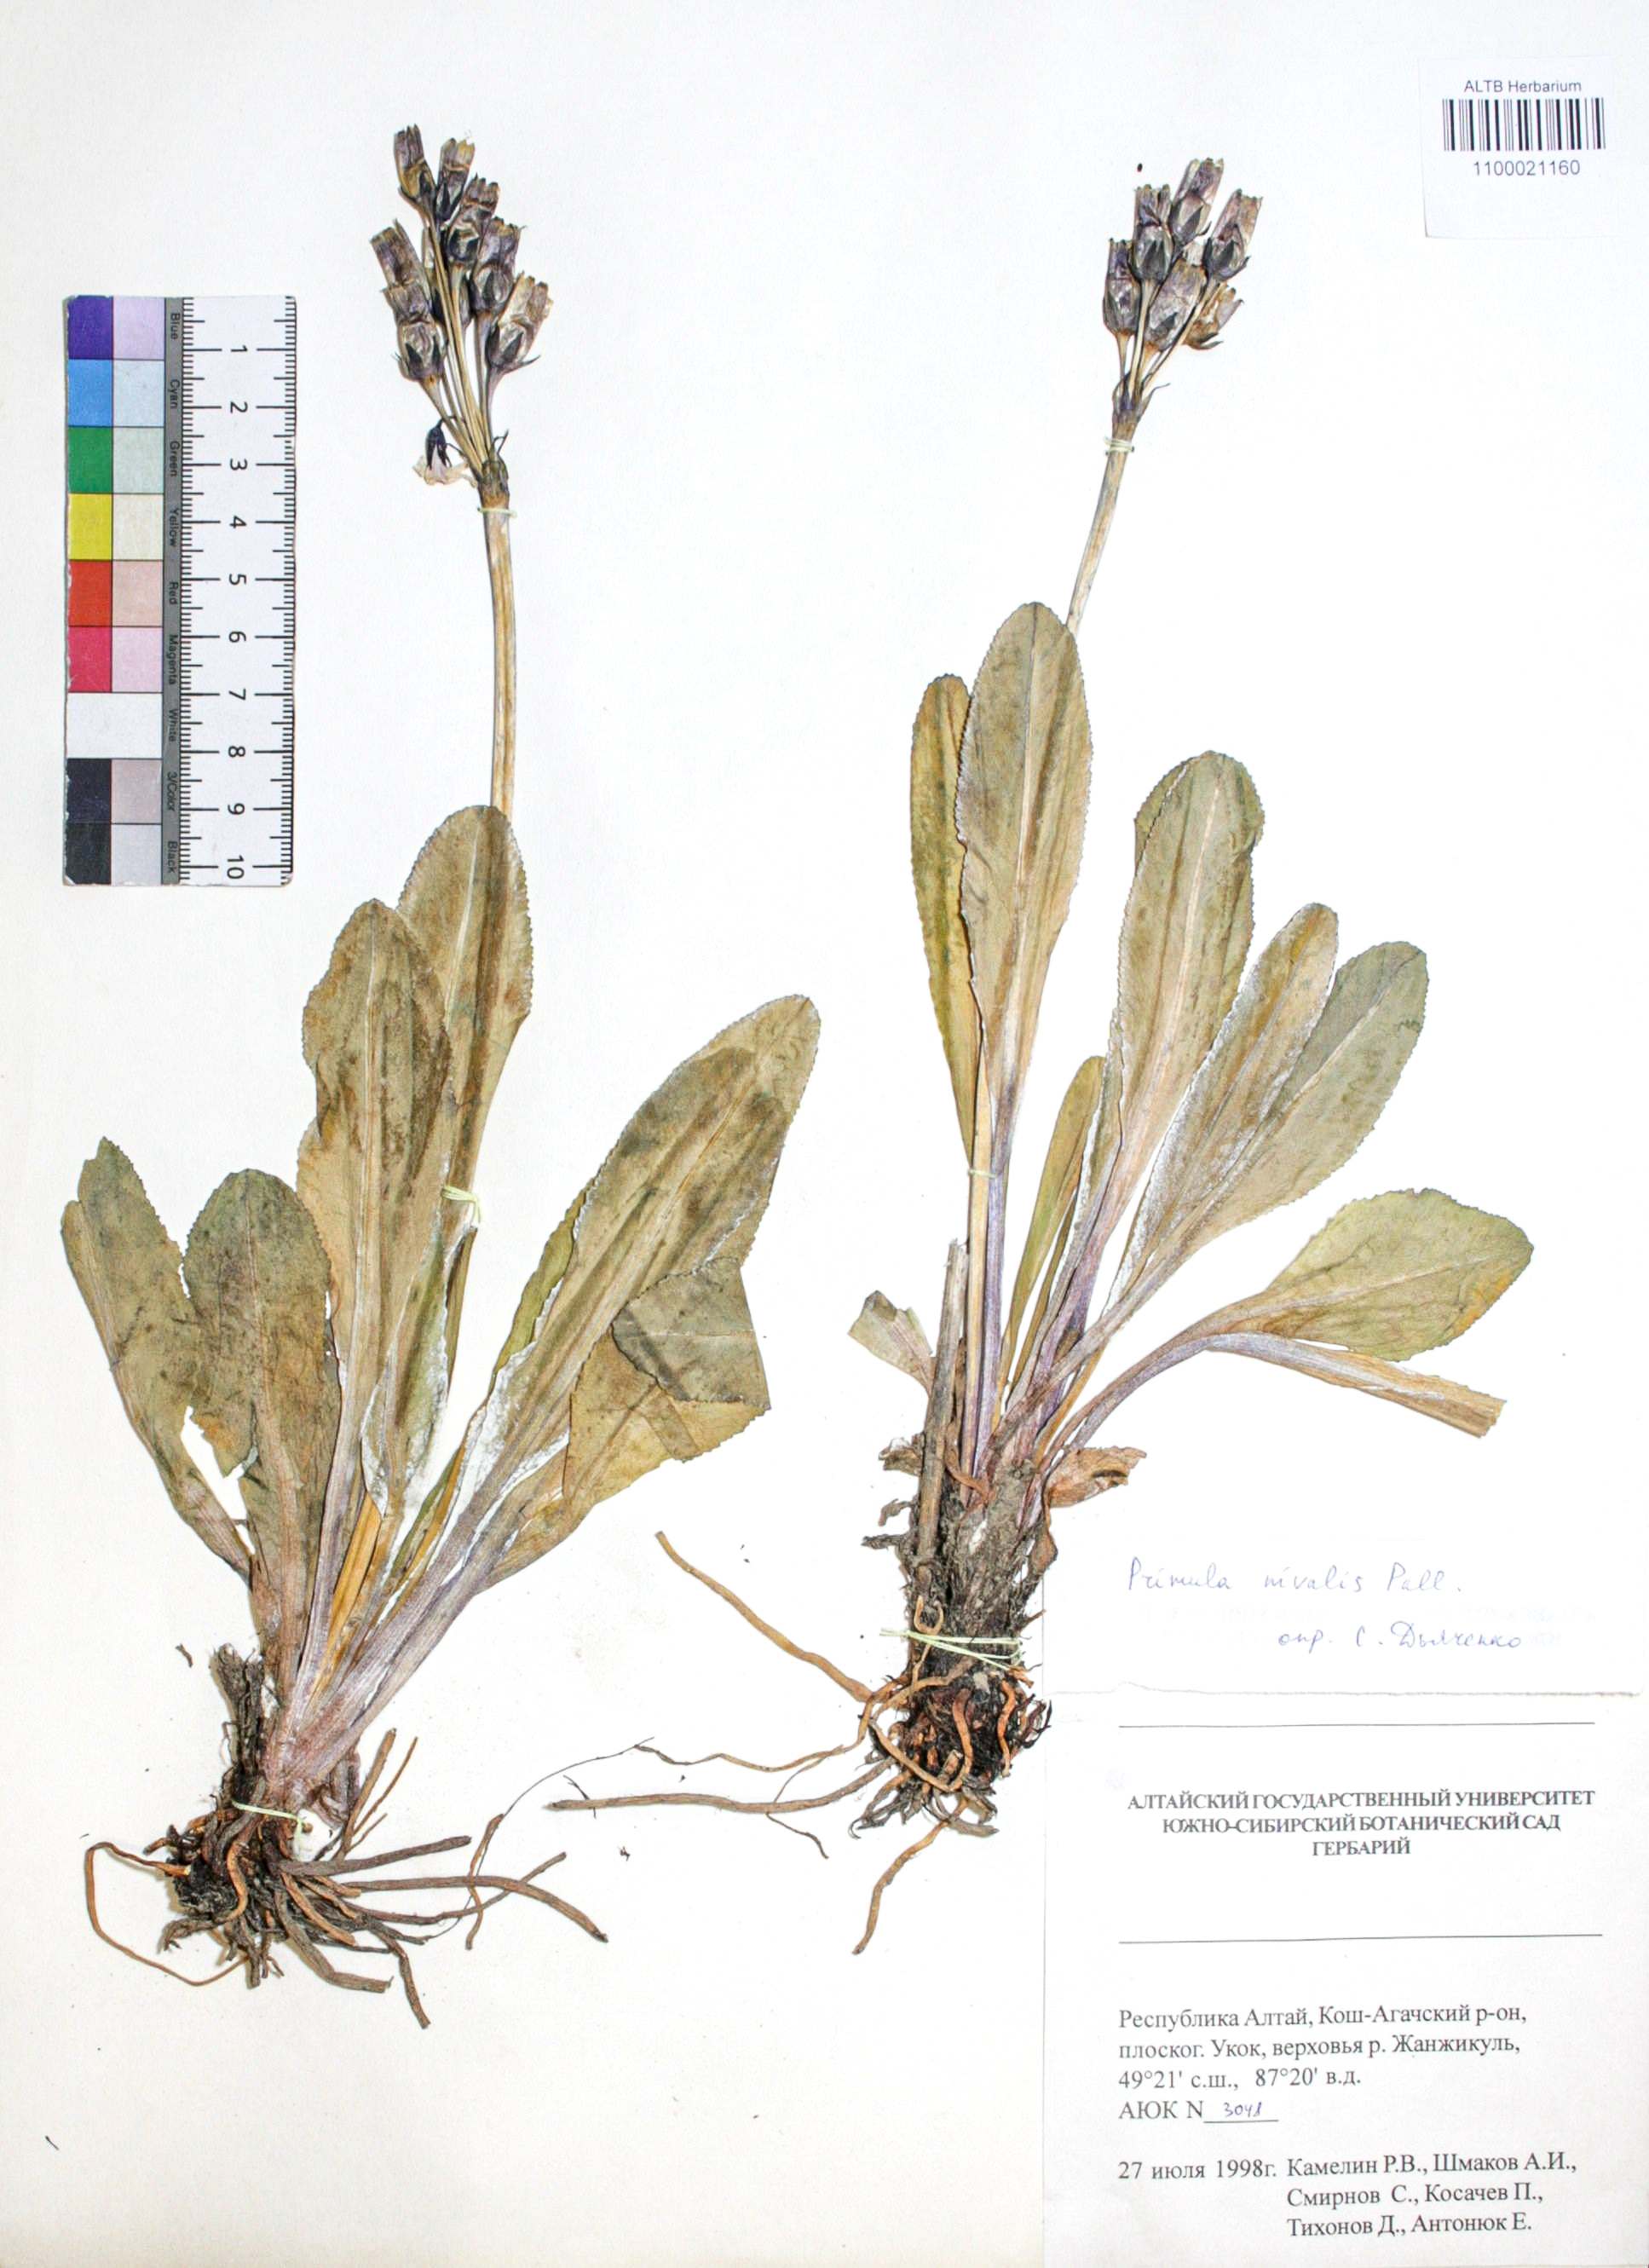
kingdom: Plantae
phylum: Tracheophyta
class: Magnoliopsida
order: Ericales
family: Primulaceae
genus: Primula
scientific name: Primula nivalis
